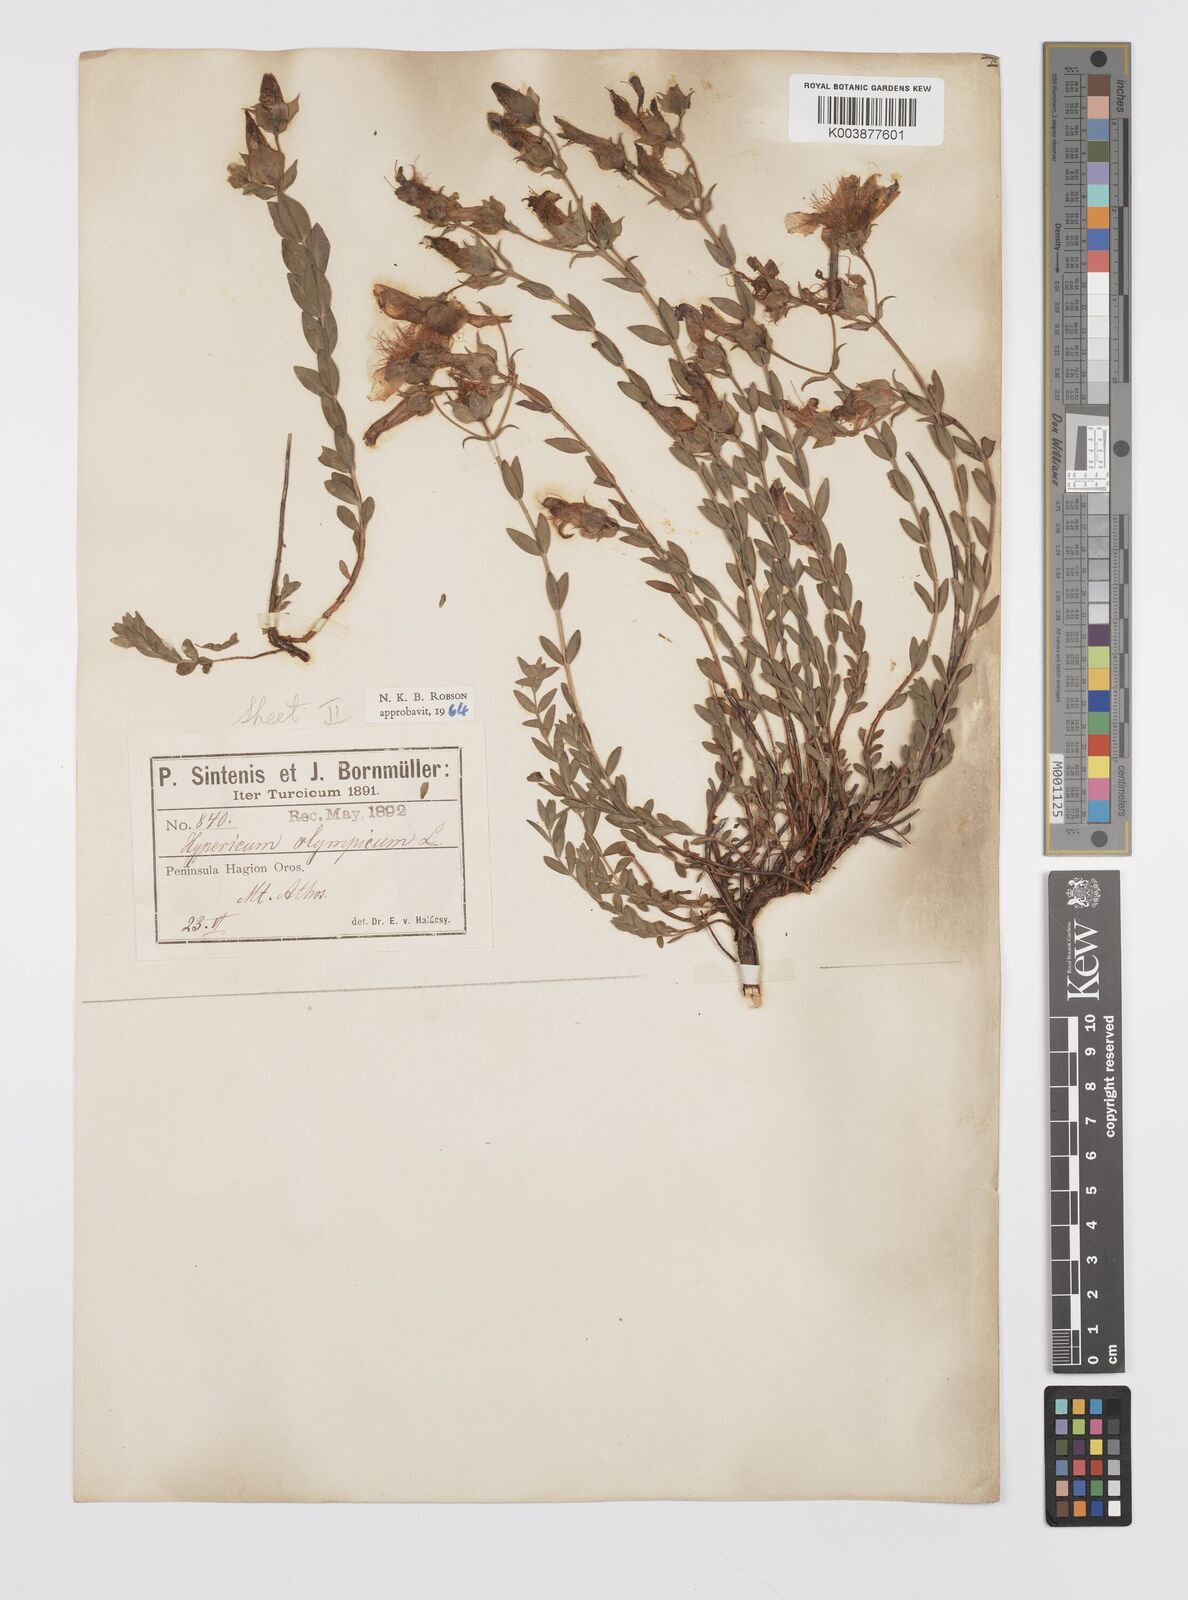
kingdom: Plantae
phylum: Tracheophyta
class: Magnoliopsida
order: Malpighiales
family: Hypericaceae
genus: Hypericum
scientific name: Hypericum olympicum
